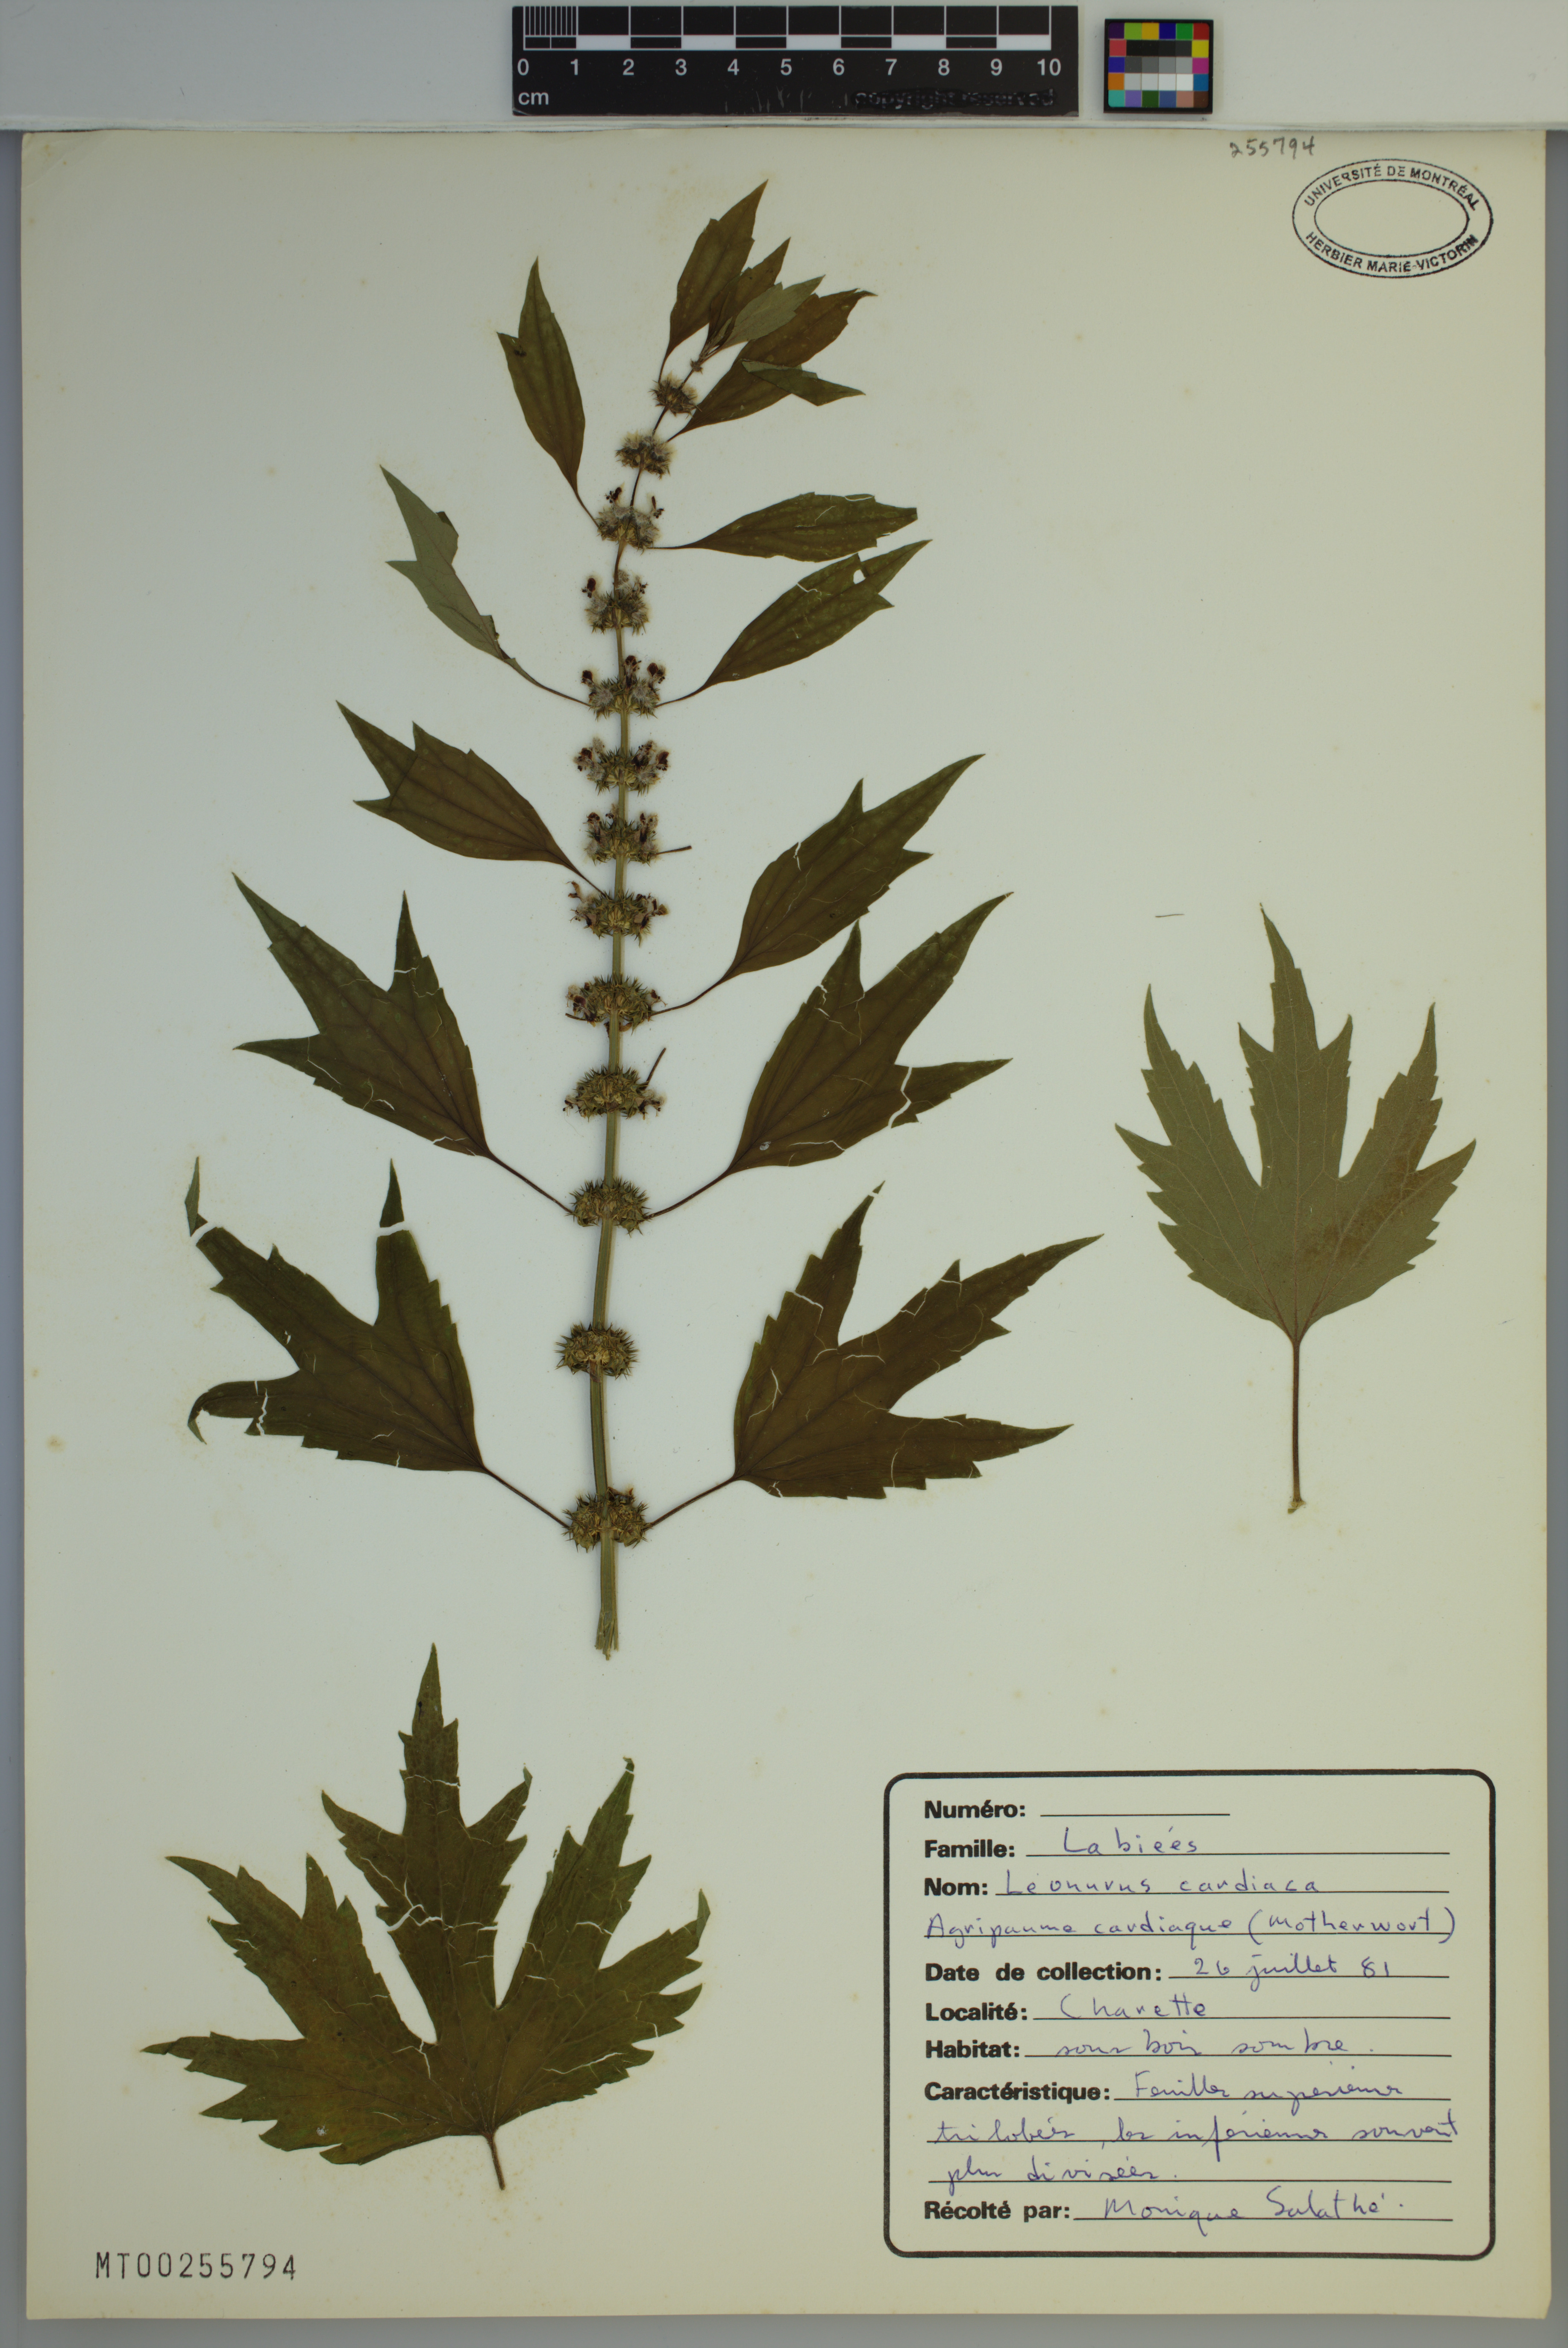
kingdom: Plantae
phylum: Tracheophyta
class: Magnoliopsida
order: Lamiales
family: Lamiaceae
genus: Leonurus
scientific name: Leonurus cardiaca
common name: Motherwort
